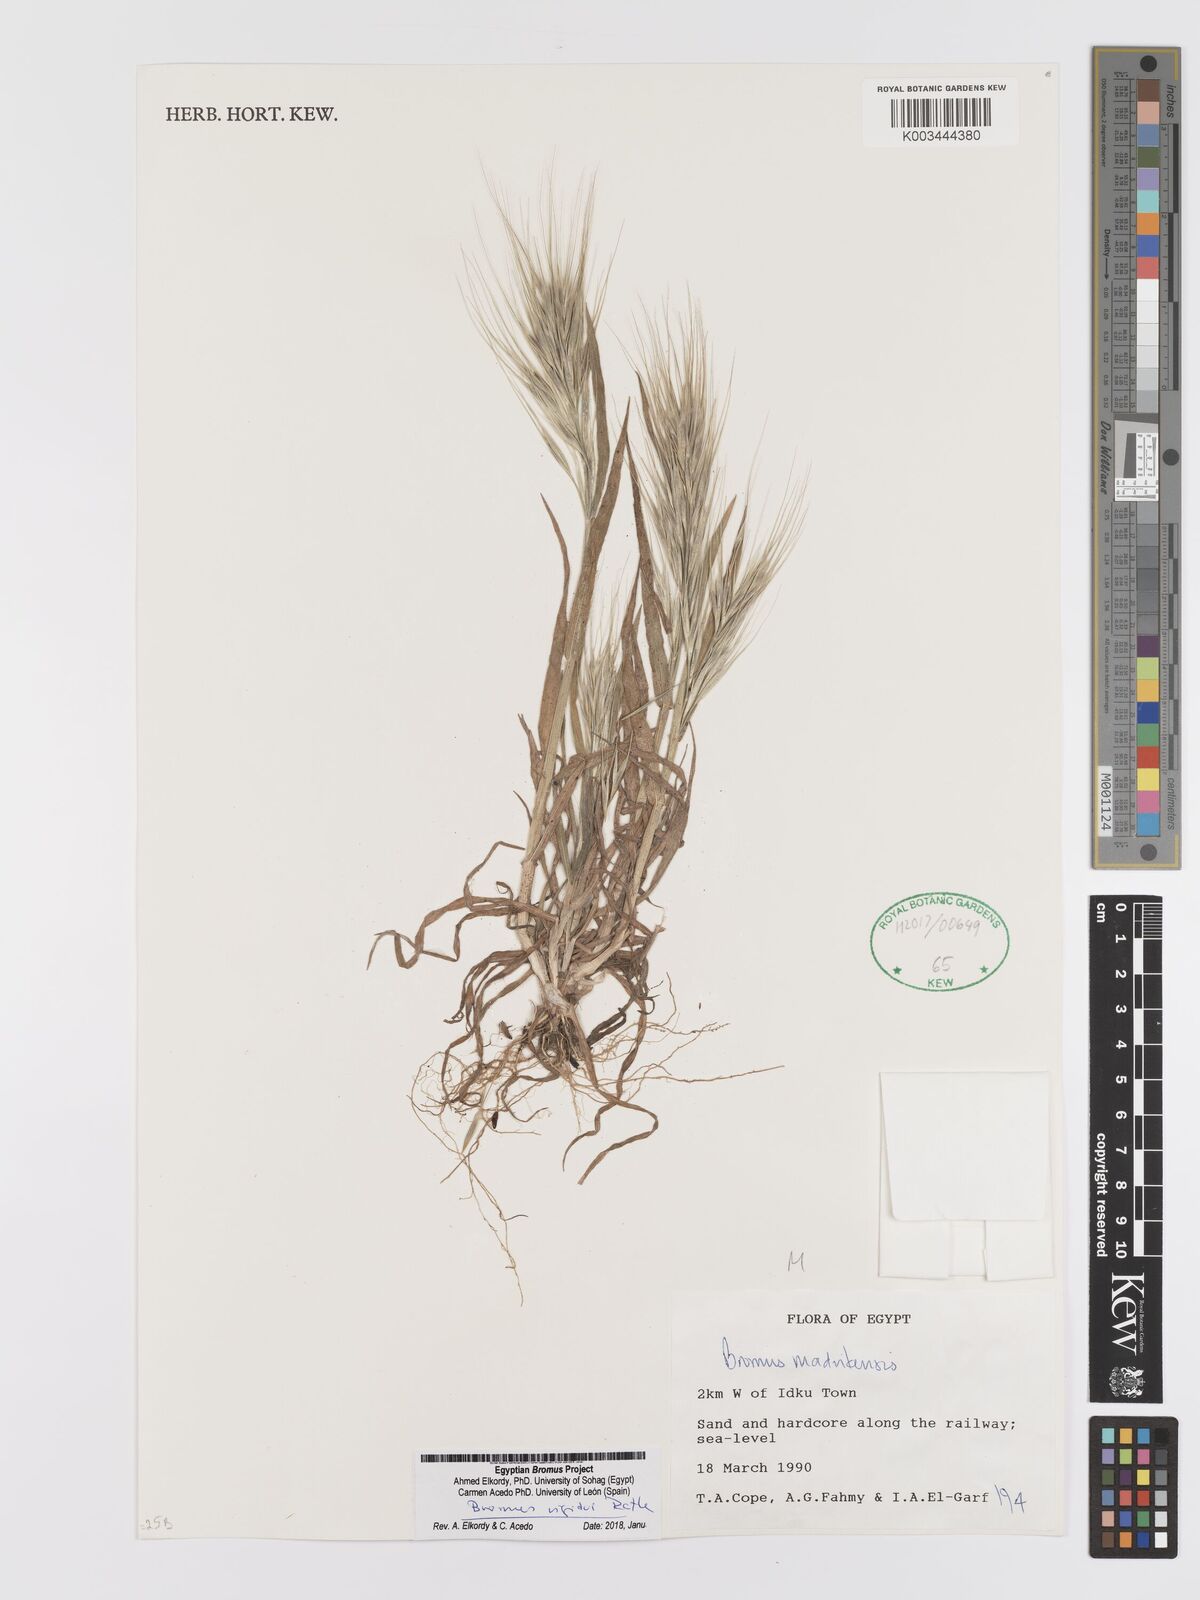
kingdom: Plantae
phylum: Tracheophyta
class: Liliopsida
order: Poales
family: Poaceae
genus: Bromus
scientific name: Bromus
